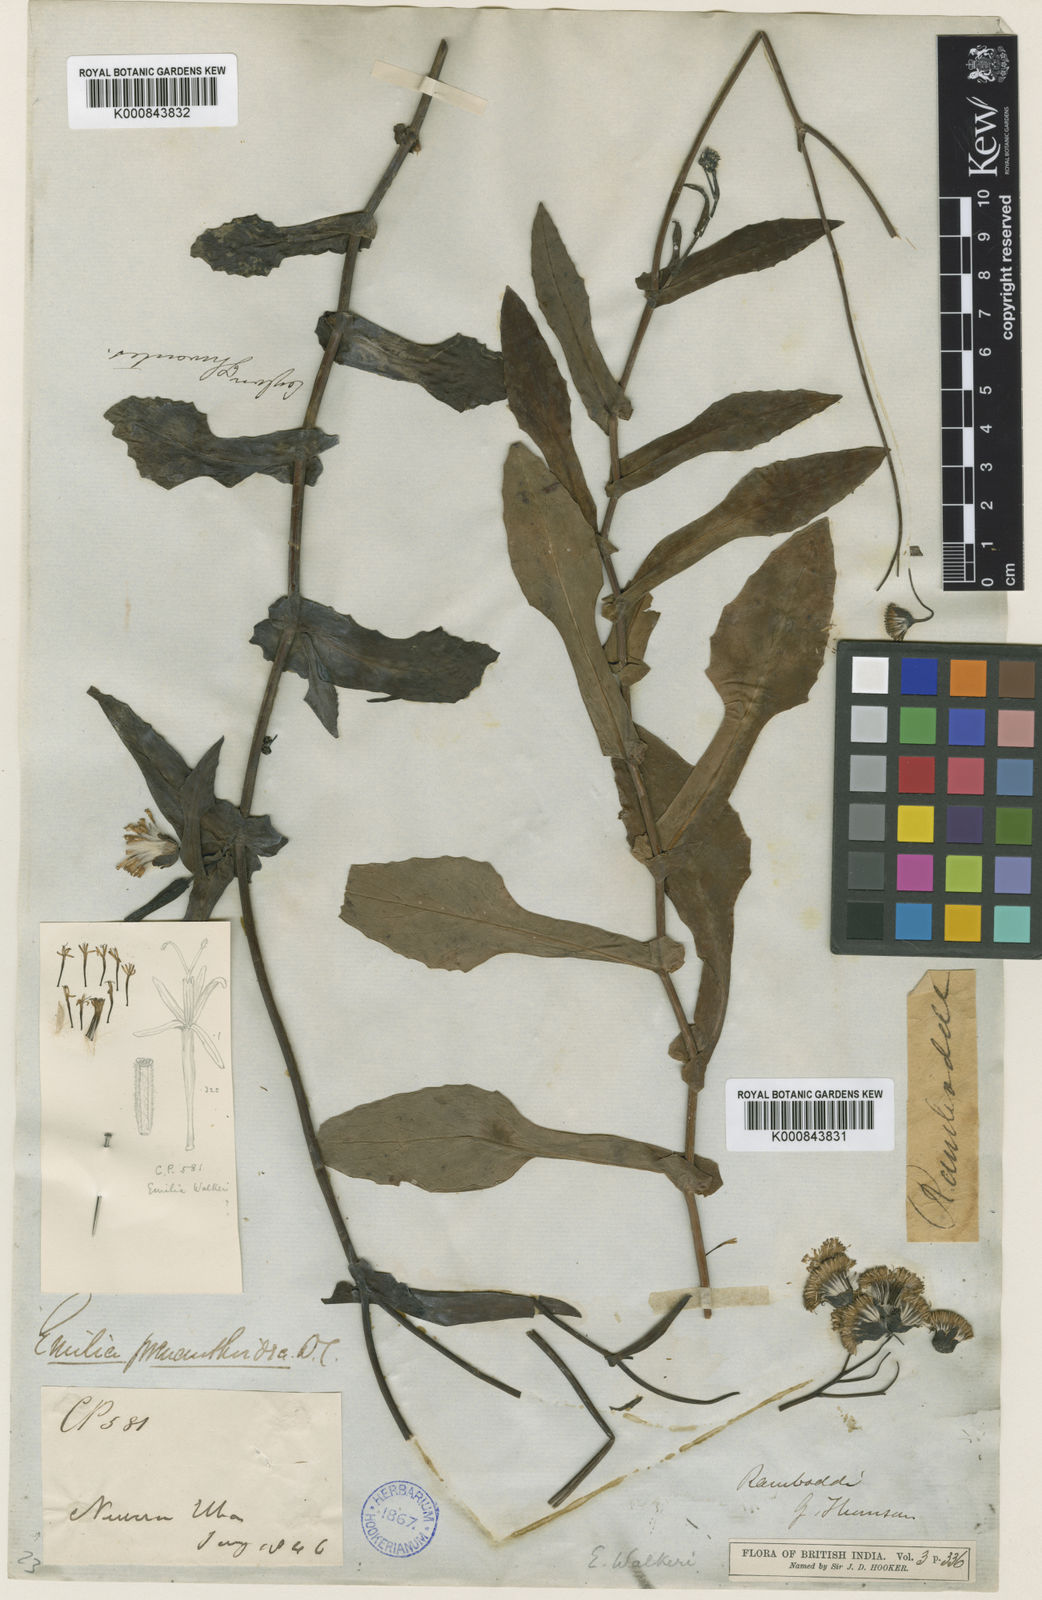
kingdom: Plantae
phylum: Tracheophyta
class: Magnoliopsida
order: Asterales
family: Asteraceae
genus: Emilia
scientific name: Emilia zeylanica
